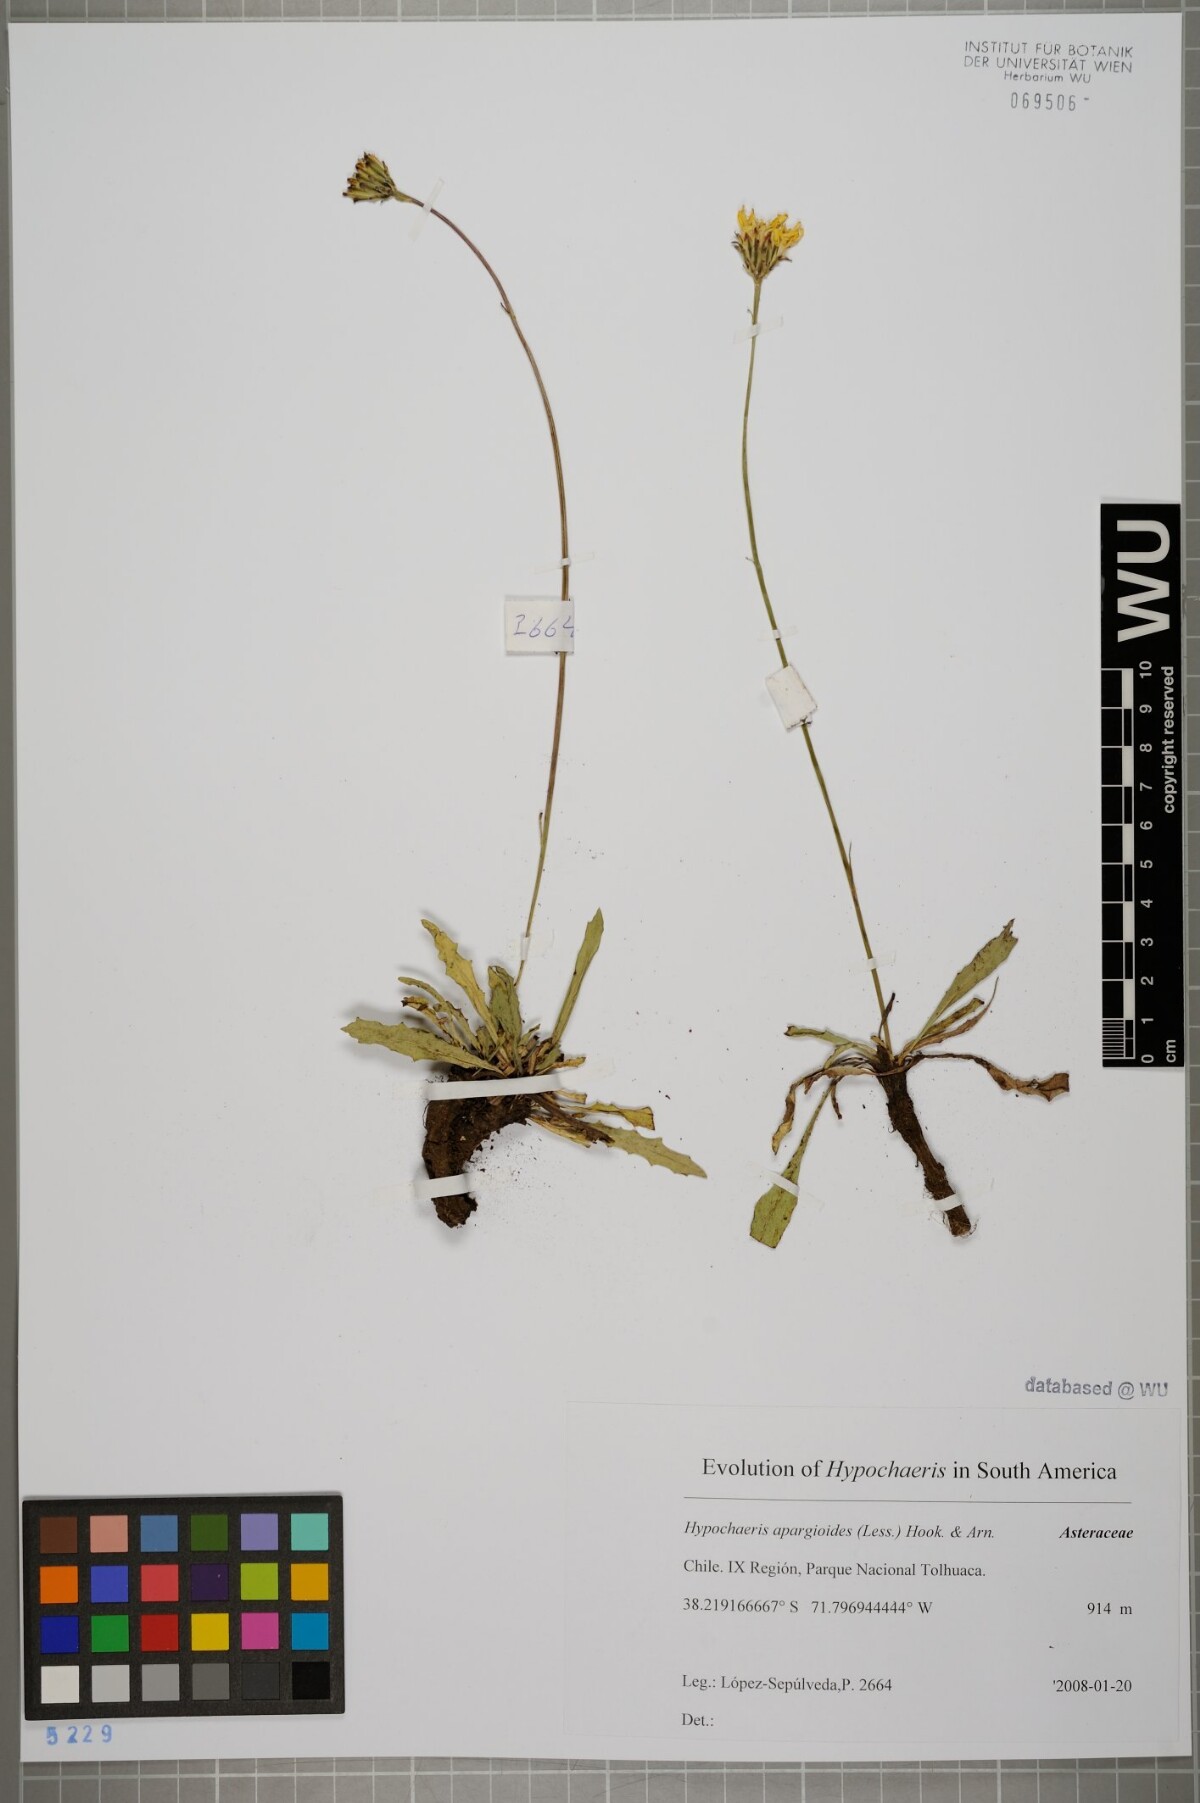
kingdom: Plantae
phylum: Tracheophyta
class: Magnoliopsida
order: Asterales
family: Asteraceae
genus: Hypochaeris
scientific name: Hypochaeris apargioides
